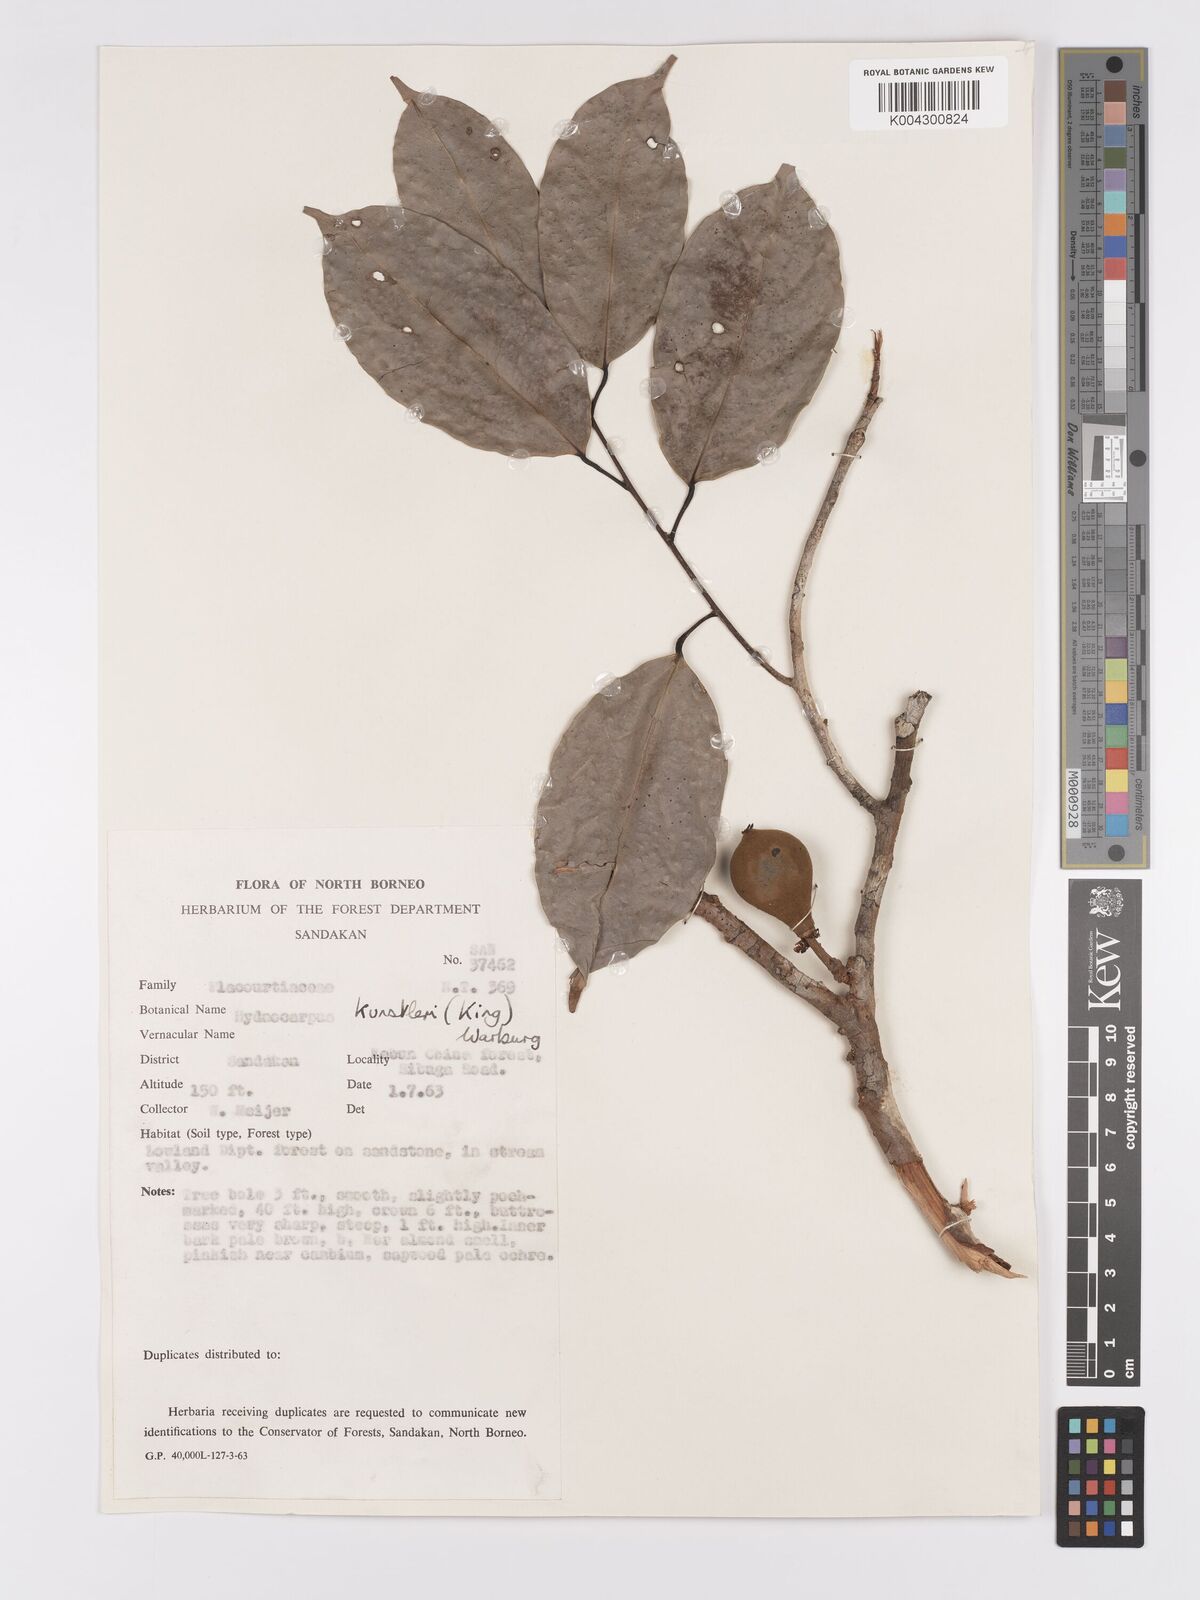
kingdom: Plantae
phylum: Tracheophyta
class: Magnoliopsida
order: Malpighiales
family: Achariaceae
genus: Hydnocarpus
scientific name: Hydnocarpus kunstleri
